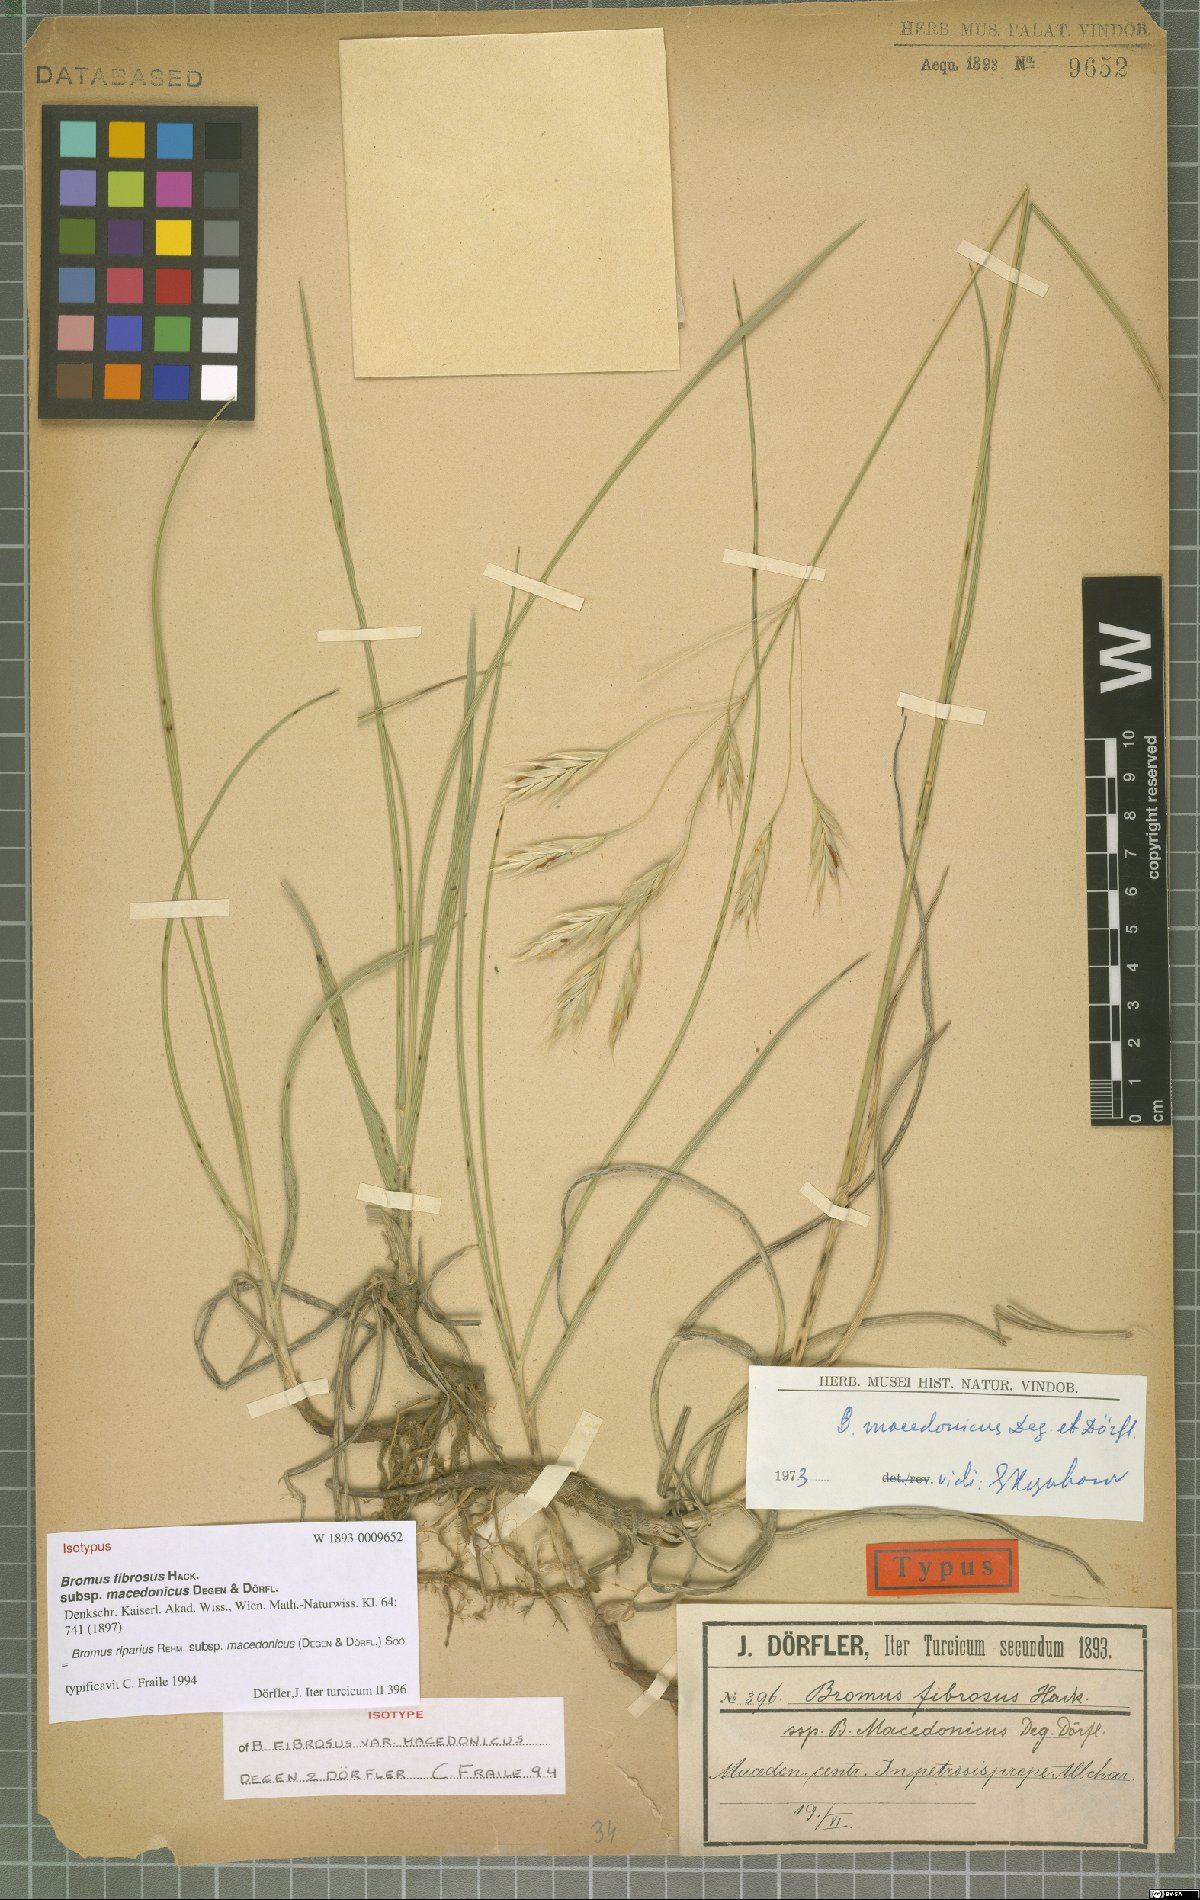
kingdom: Plantae
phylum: Tracheophyta
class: Liliopsida
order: Poales
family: Poaceae
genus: Bromus
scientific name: Bromus riparius
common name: Meadow brome
